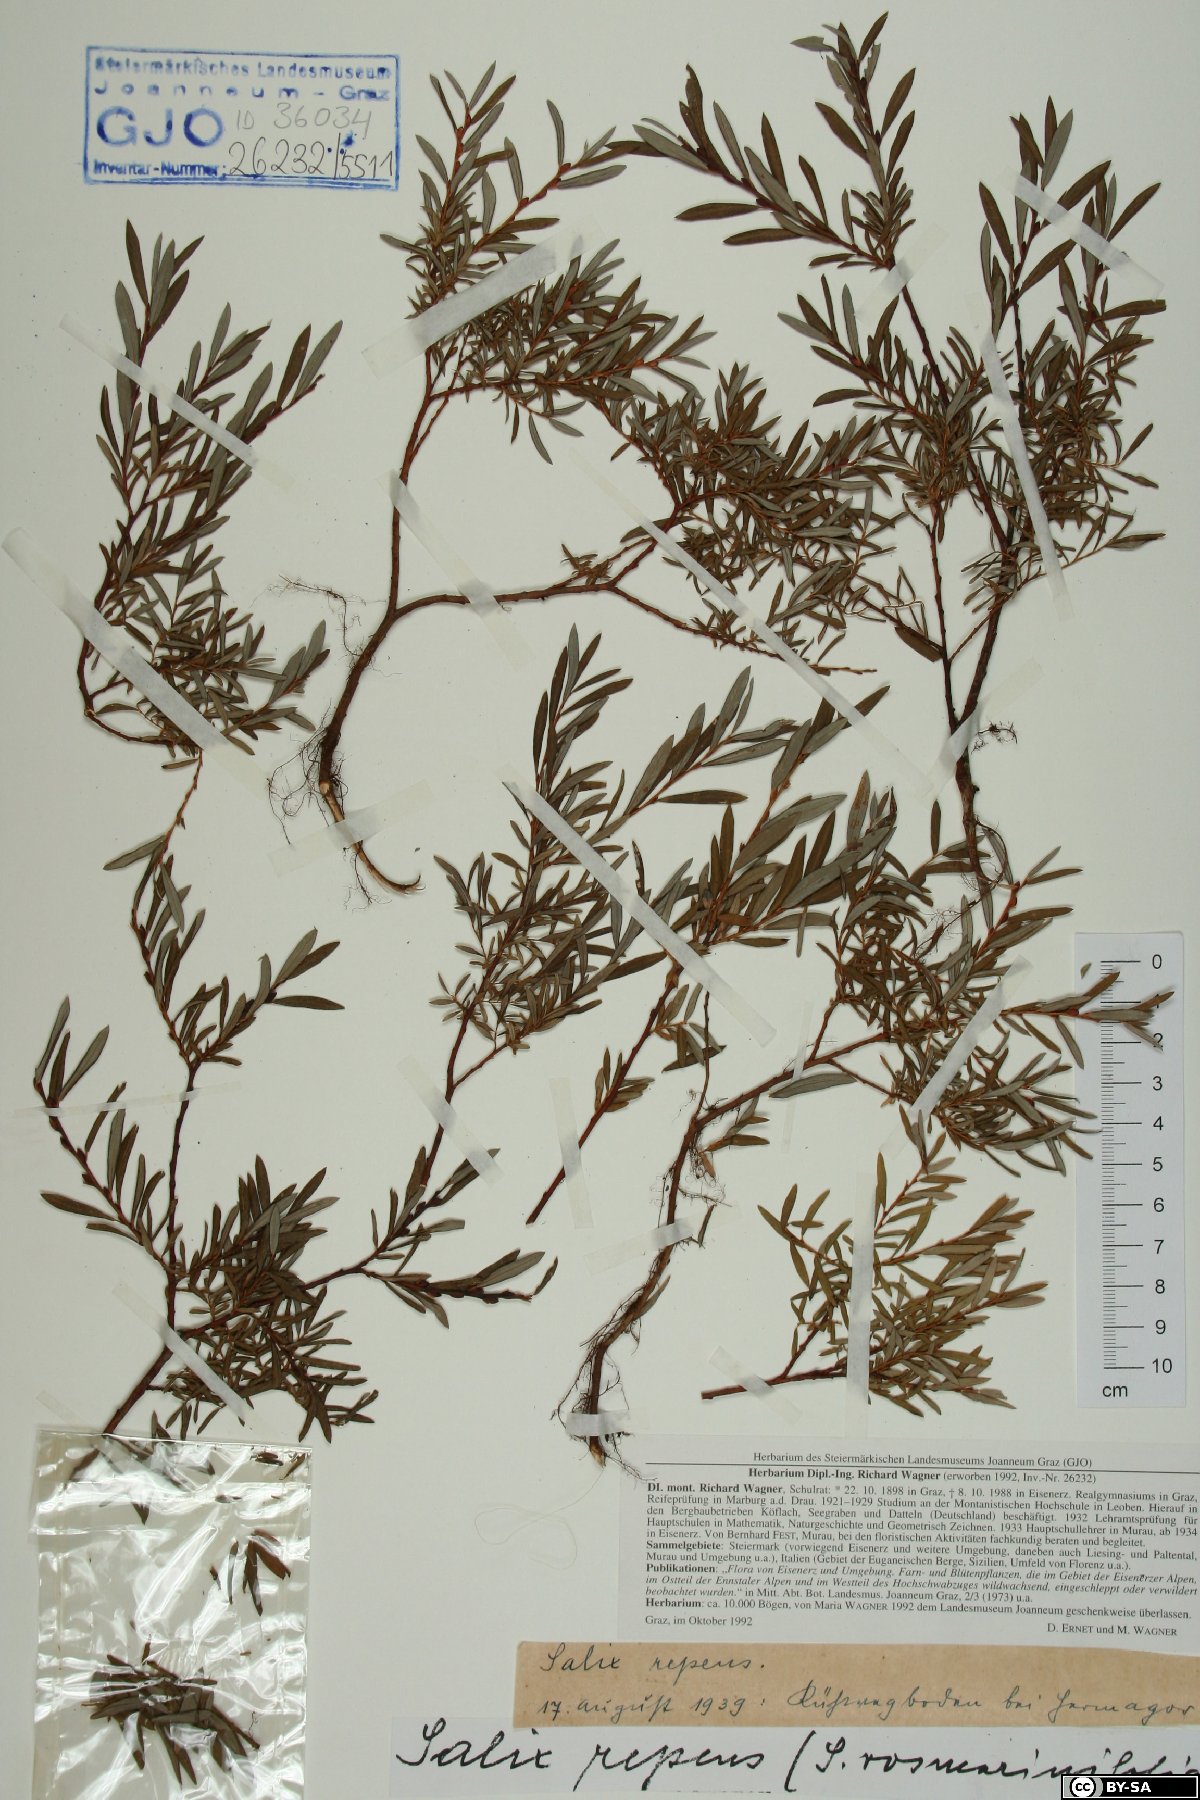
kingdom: Plantae
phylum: Tracheophyta
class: Magnoliopsida
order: Malpighiales
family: Salicaceae
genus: Salix
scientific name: Salix repens
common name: Creeping willow
